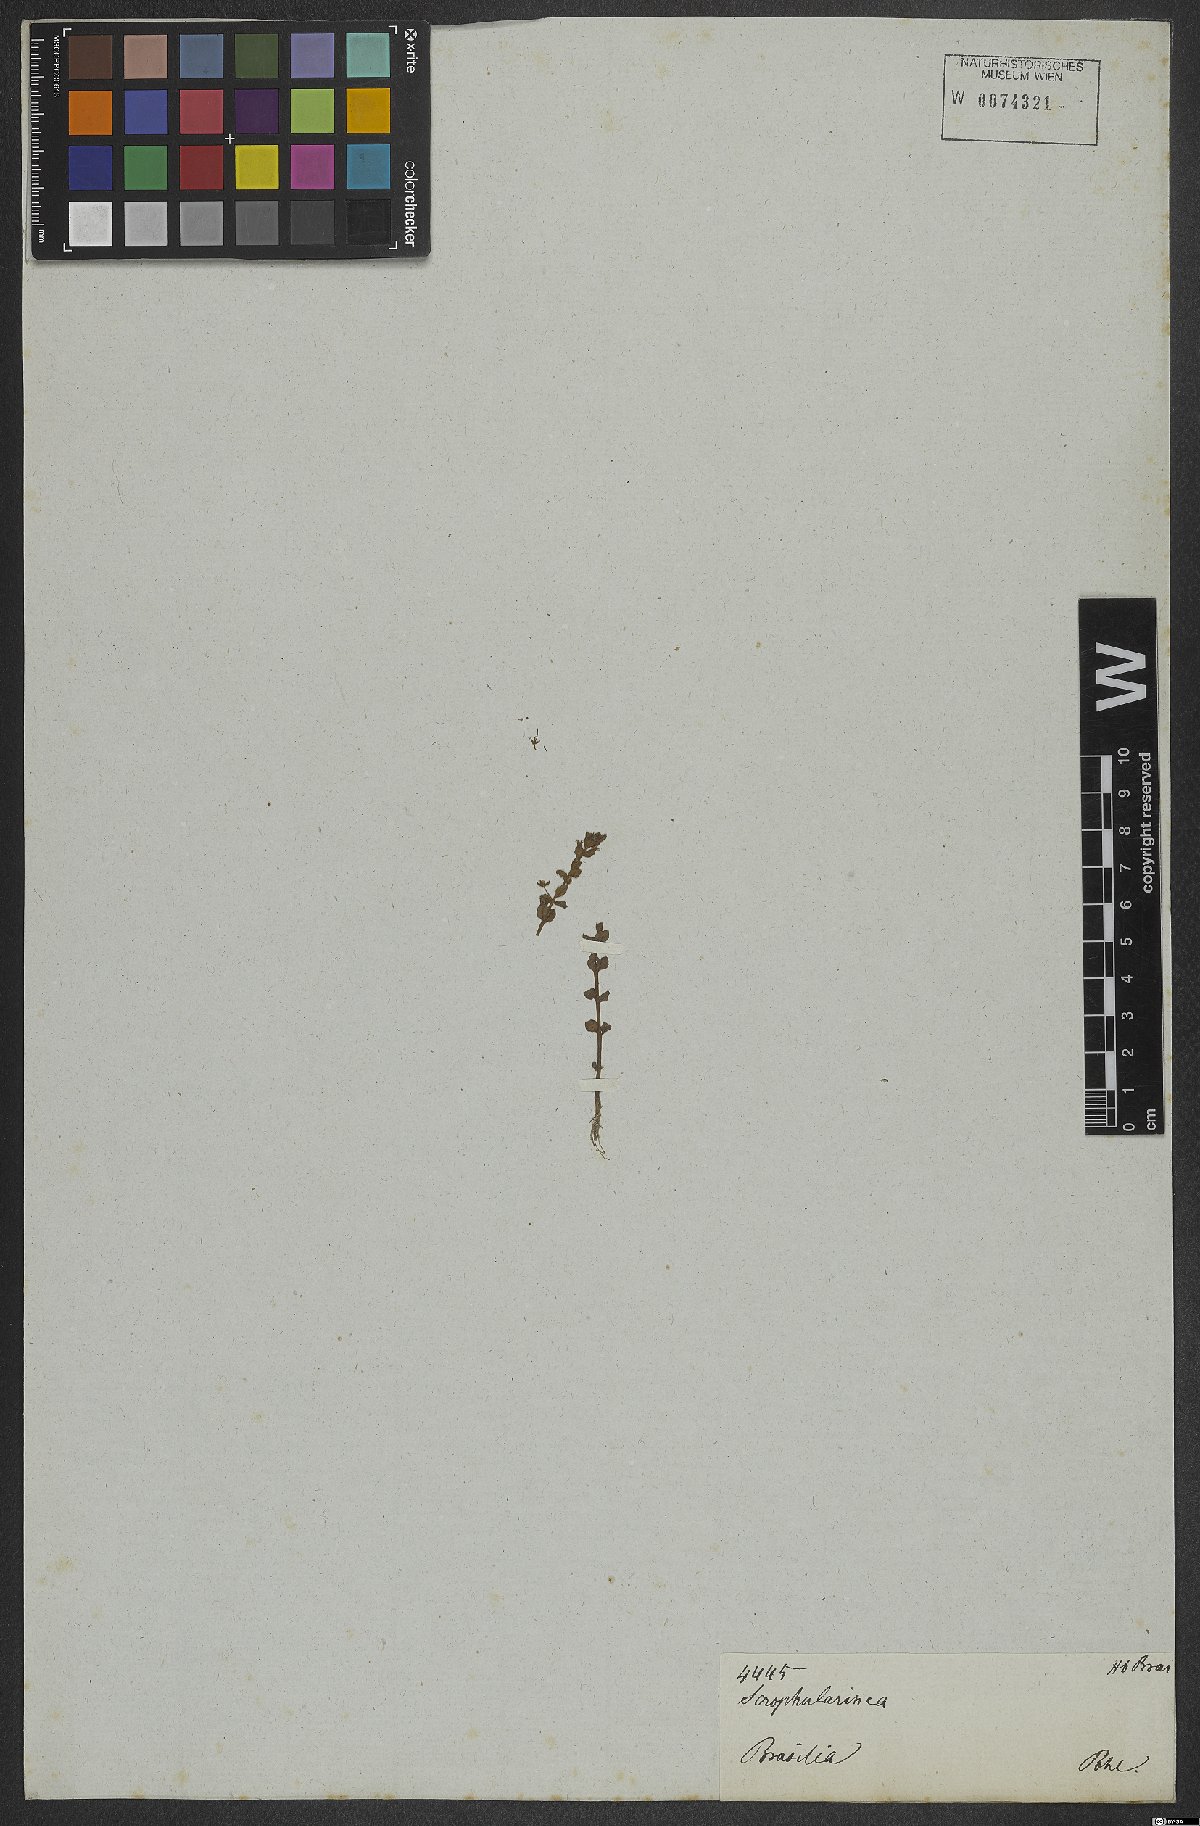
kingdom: Plantae
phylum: Tracheophyta
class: Magnoliopsida
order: Lamiales
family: Plantaginaceae
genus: Conobea
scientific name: Conobea
